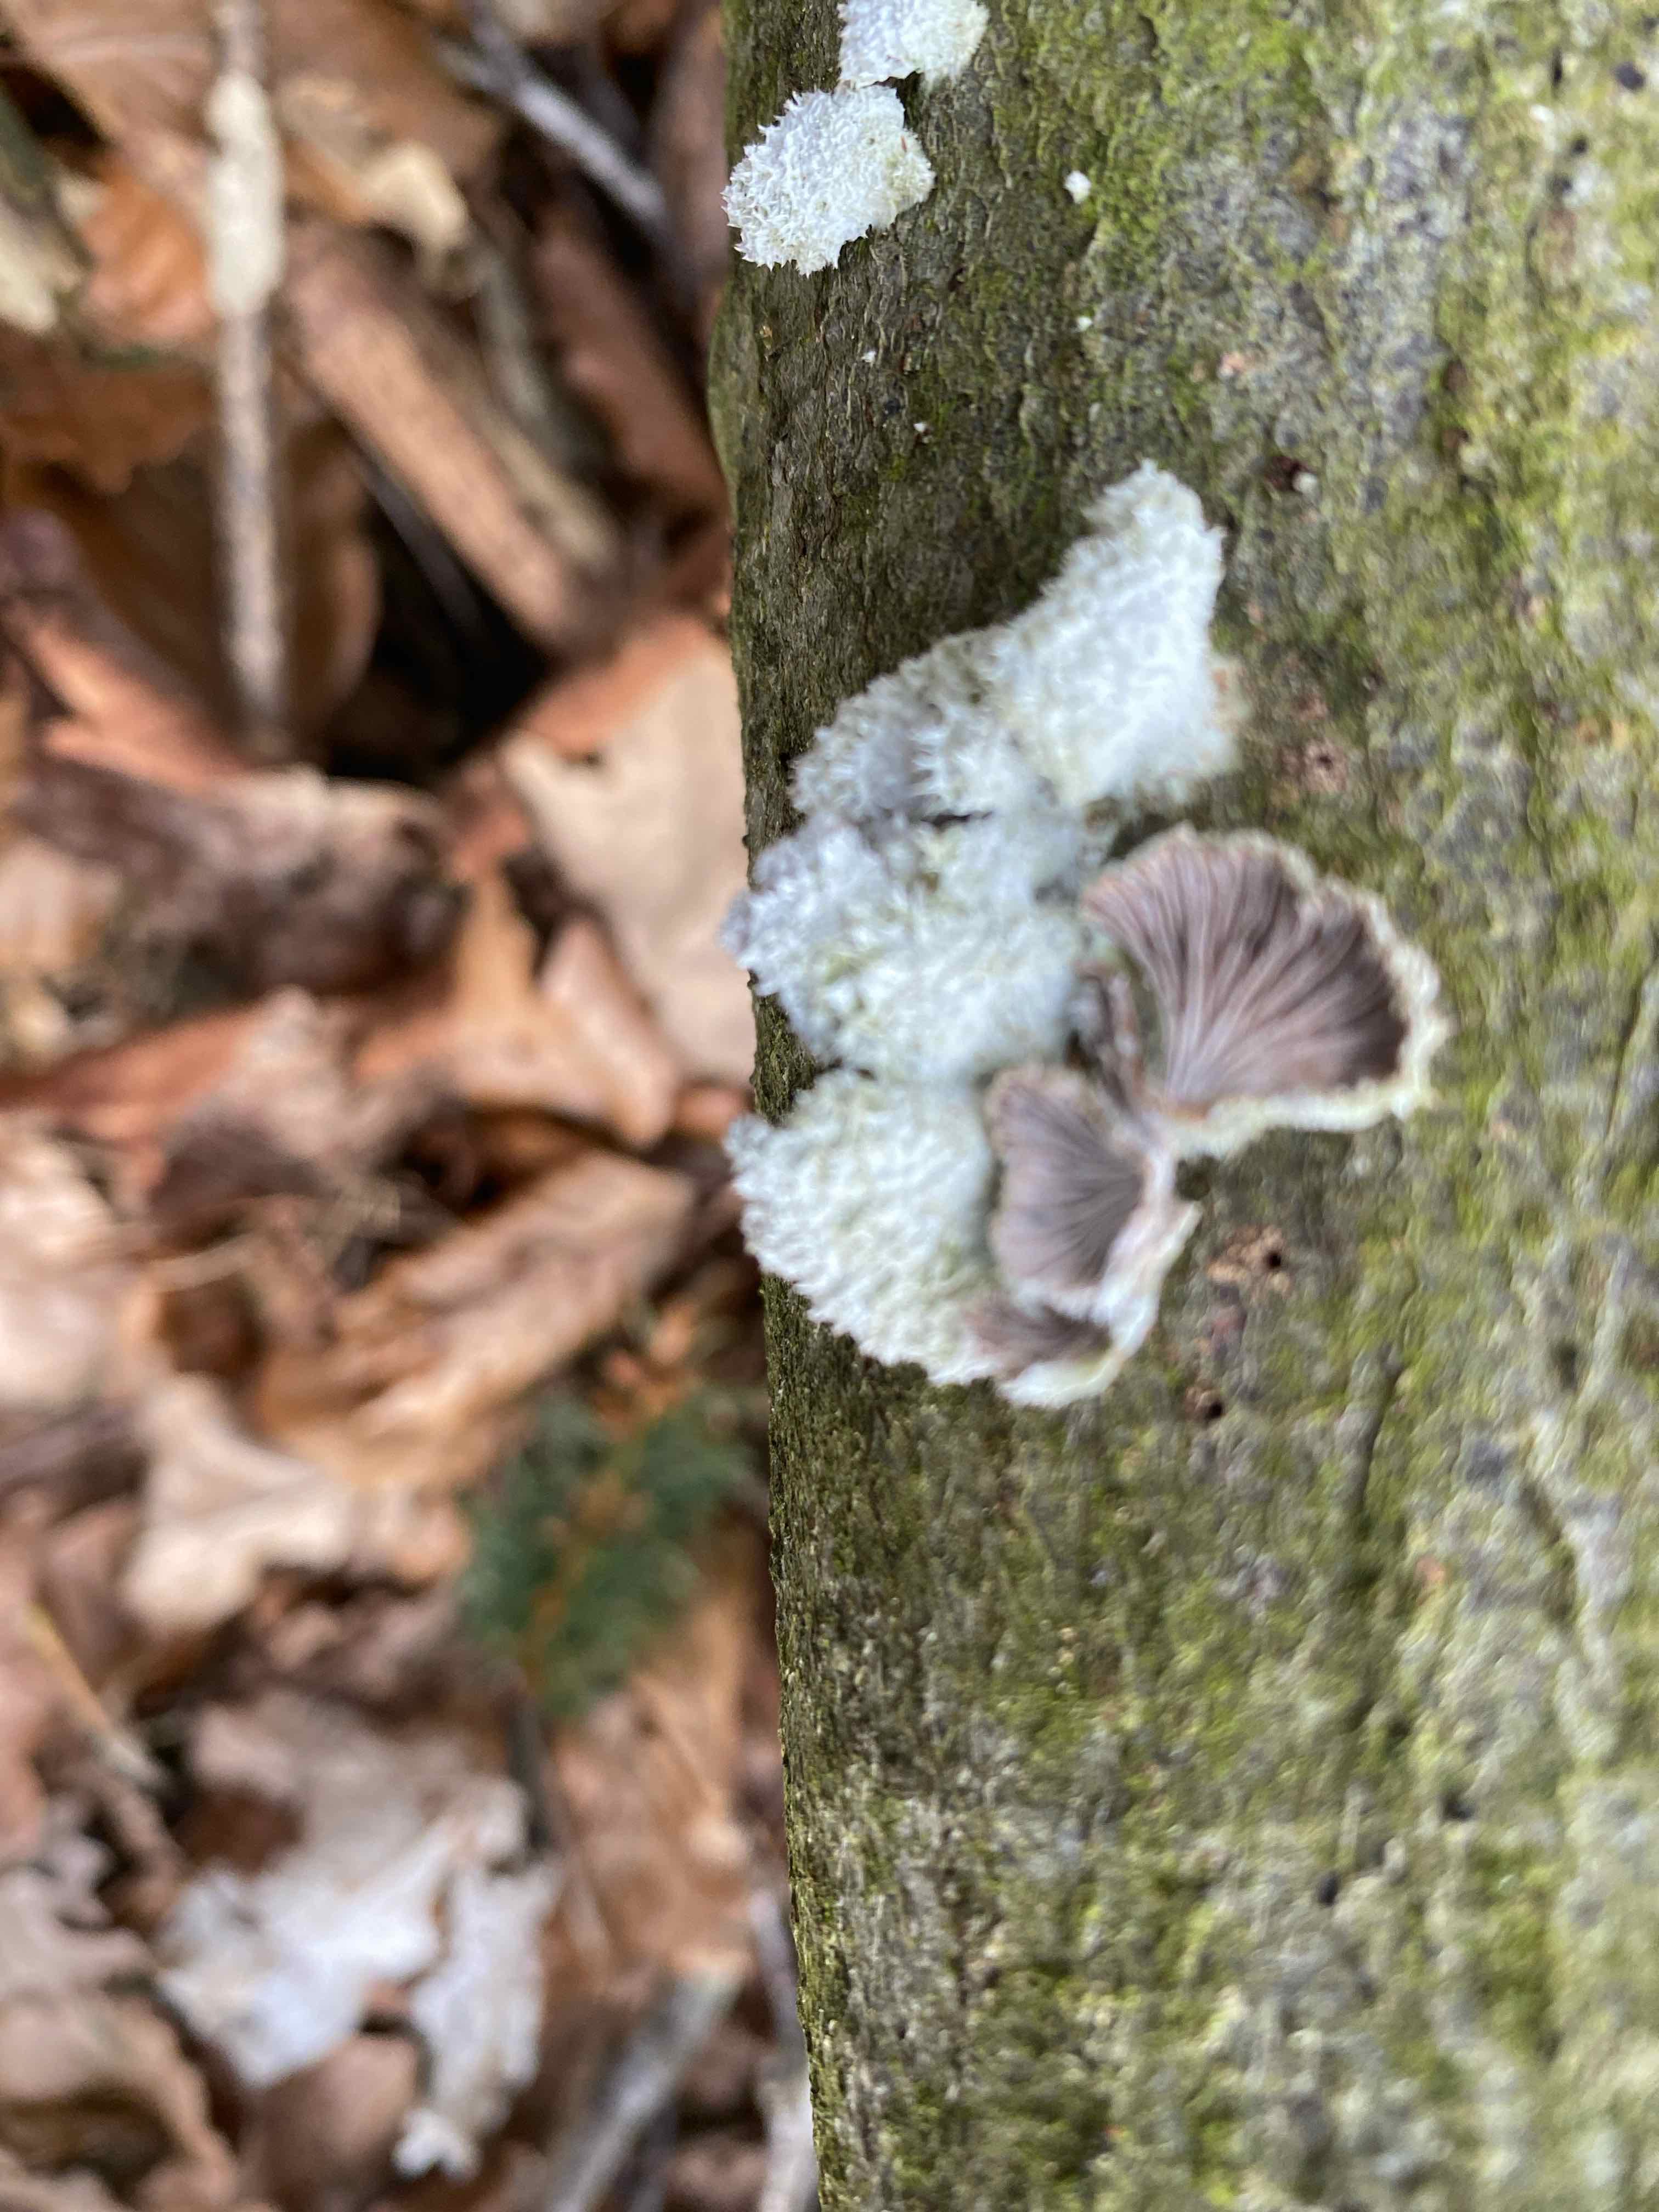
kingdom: Fungi
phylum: Basidiomycota
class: Agaricomycetes
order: Agaricales
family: Schizophyllaceae
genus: Schizophyllum
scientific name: Schizophyllum commune
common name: kløvblad
